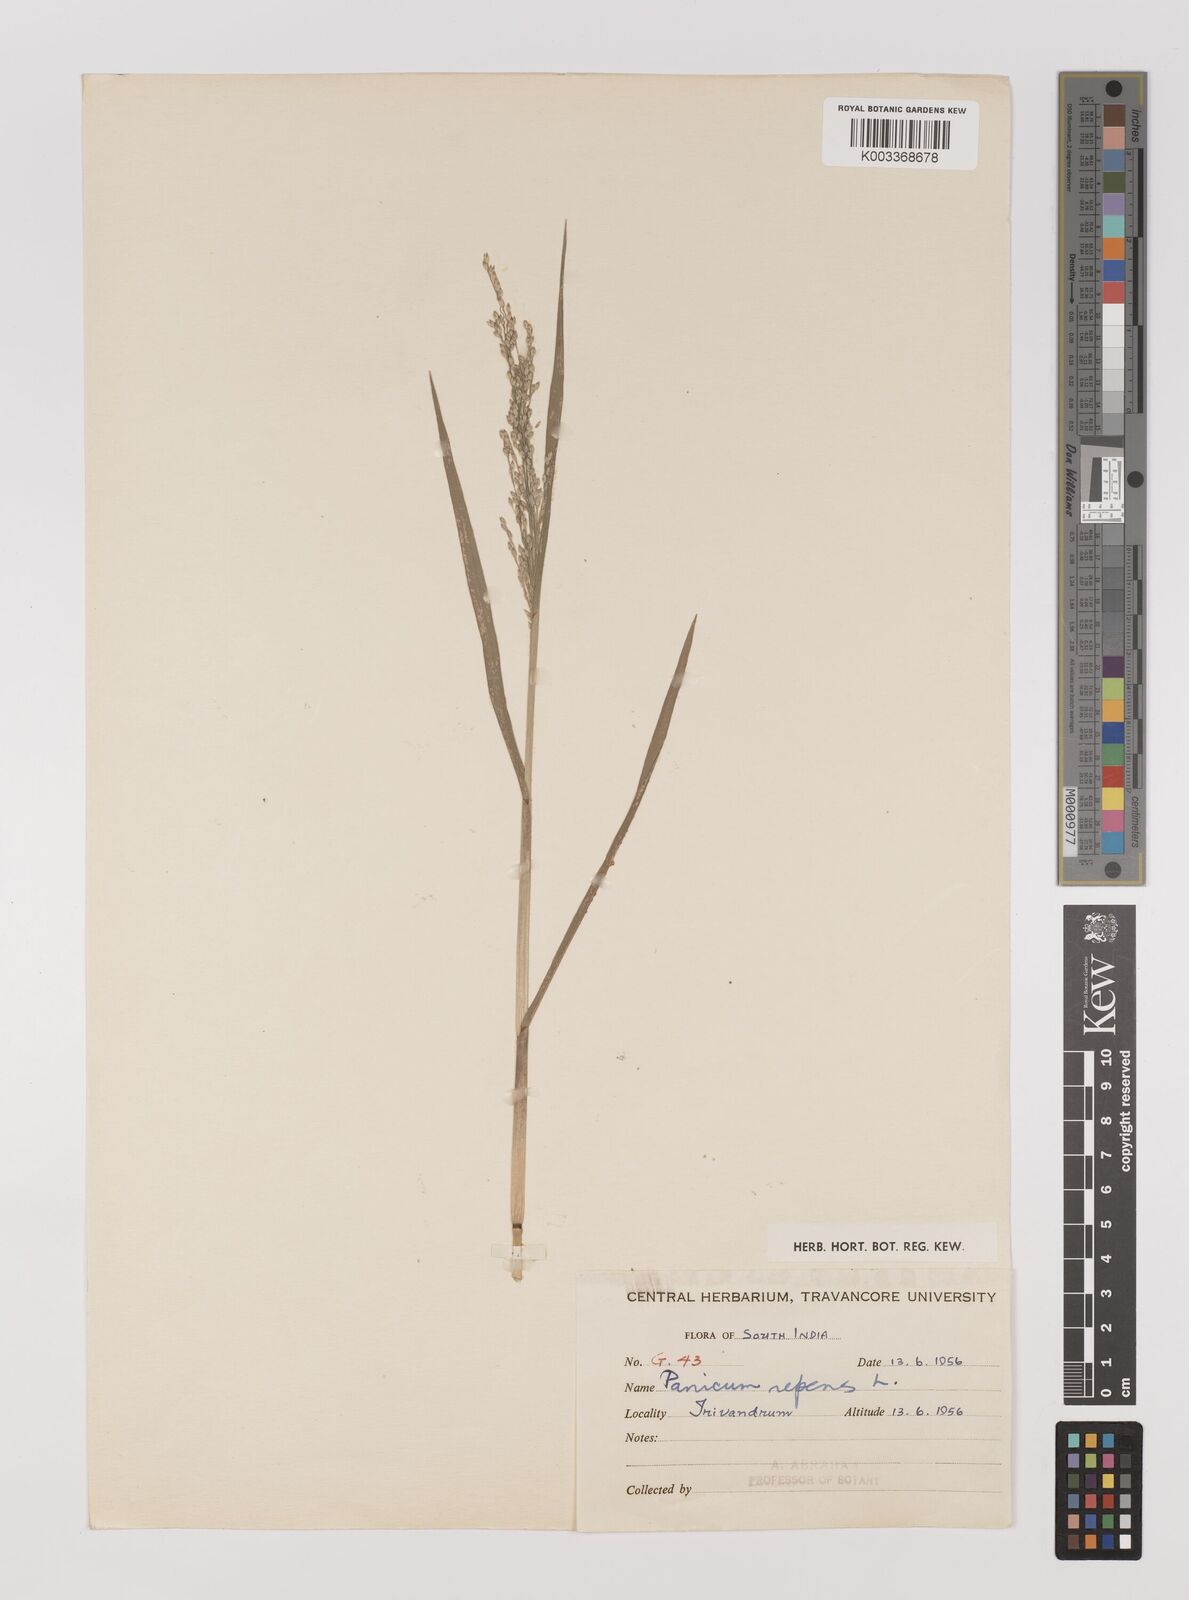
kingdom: Plantae
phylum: Tracheophyta
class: Liliopsida
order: Poales
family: Poaceae
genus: Panicum
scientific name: Panicum repens
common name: Torpedo grass
